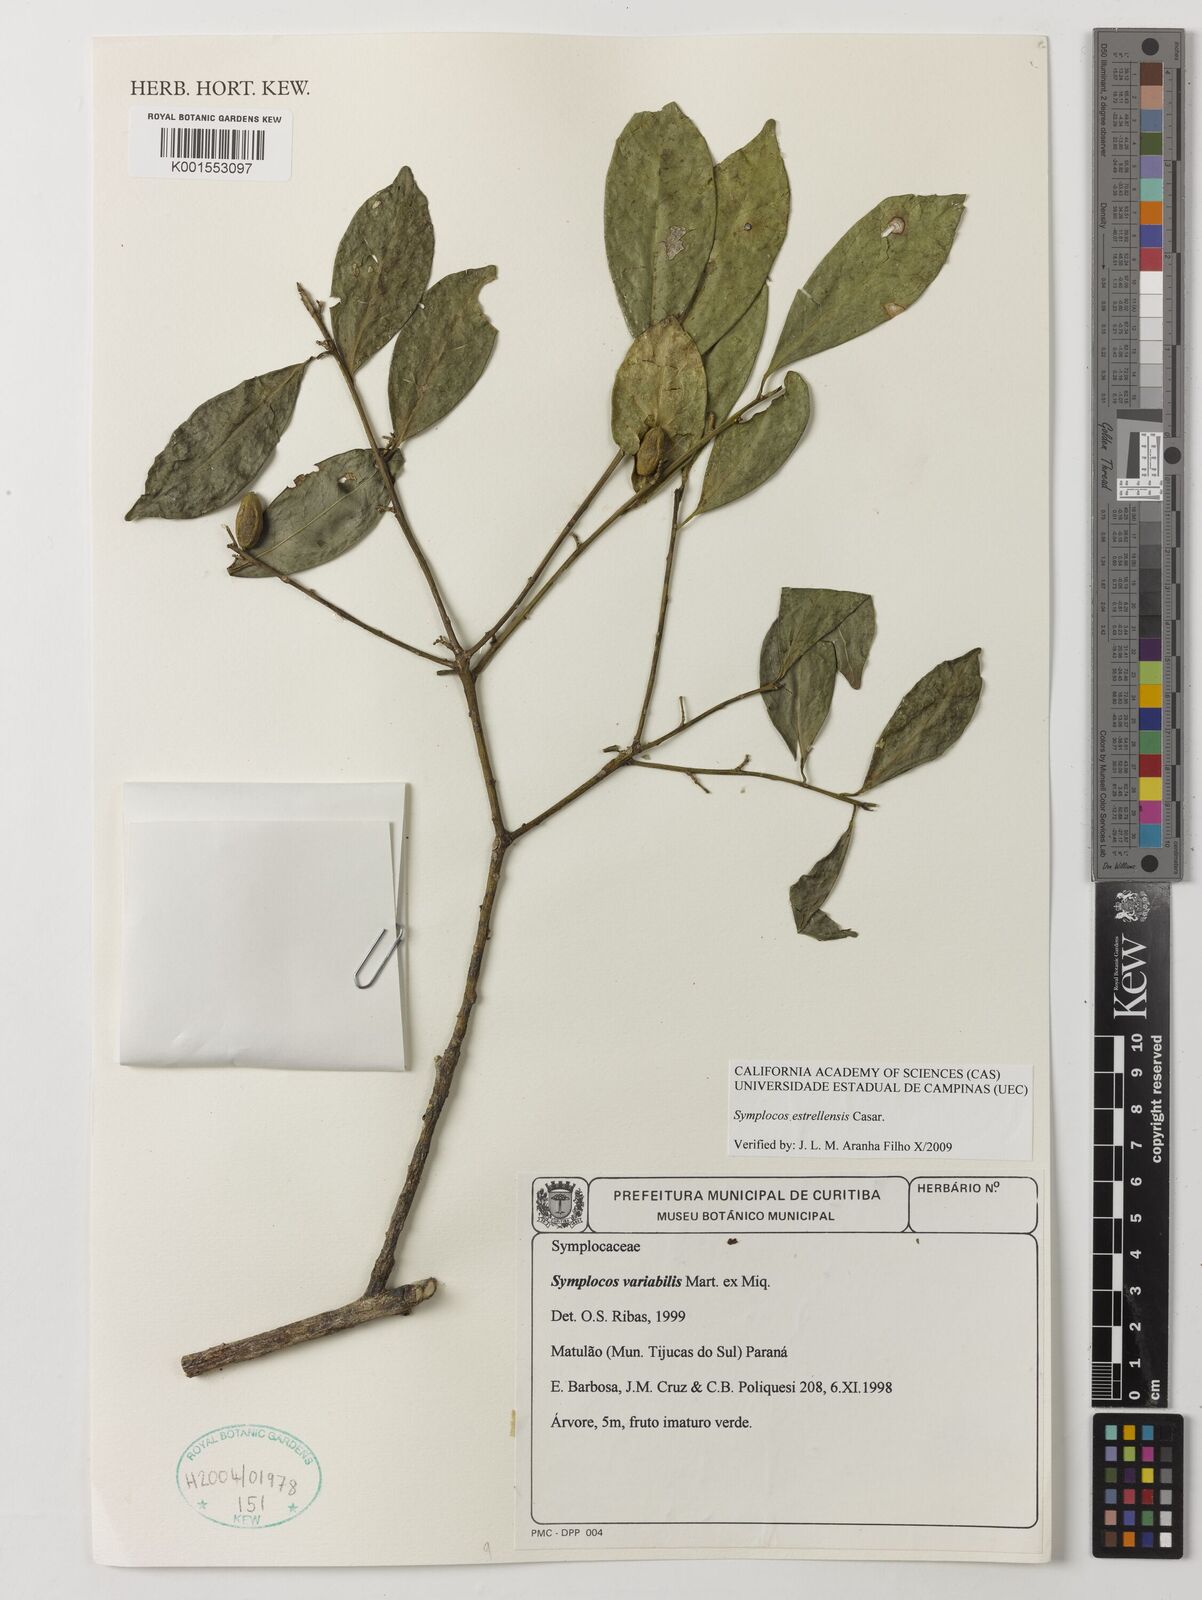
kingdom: Plantae
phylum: Tracheophyta
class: Magnoliopsida
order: Ericales
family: Symplocaceae
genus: Symplocos
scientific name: Symplocos estrellensis
